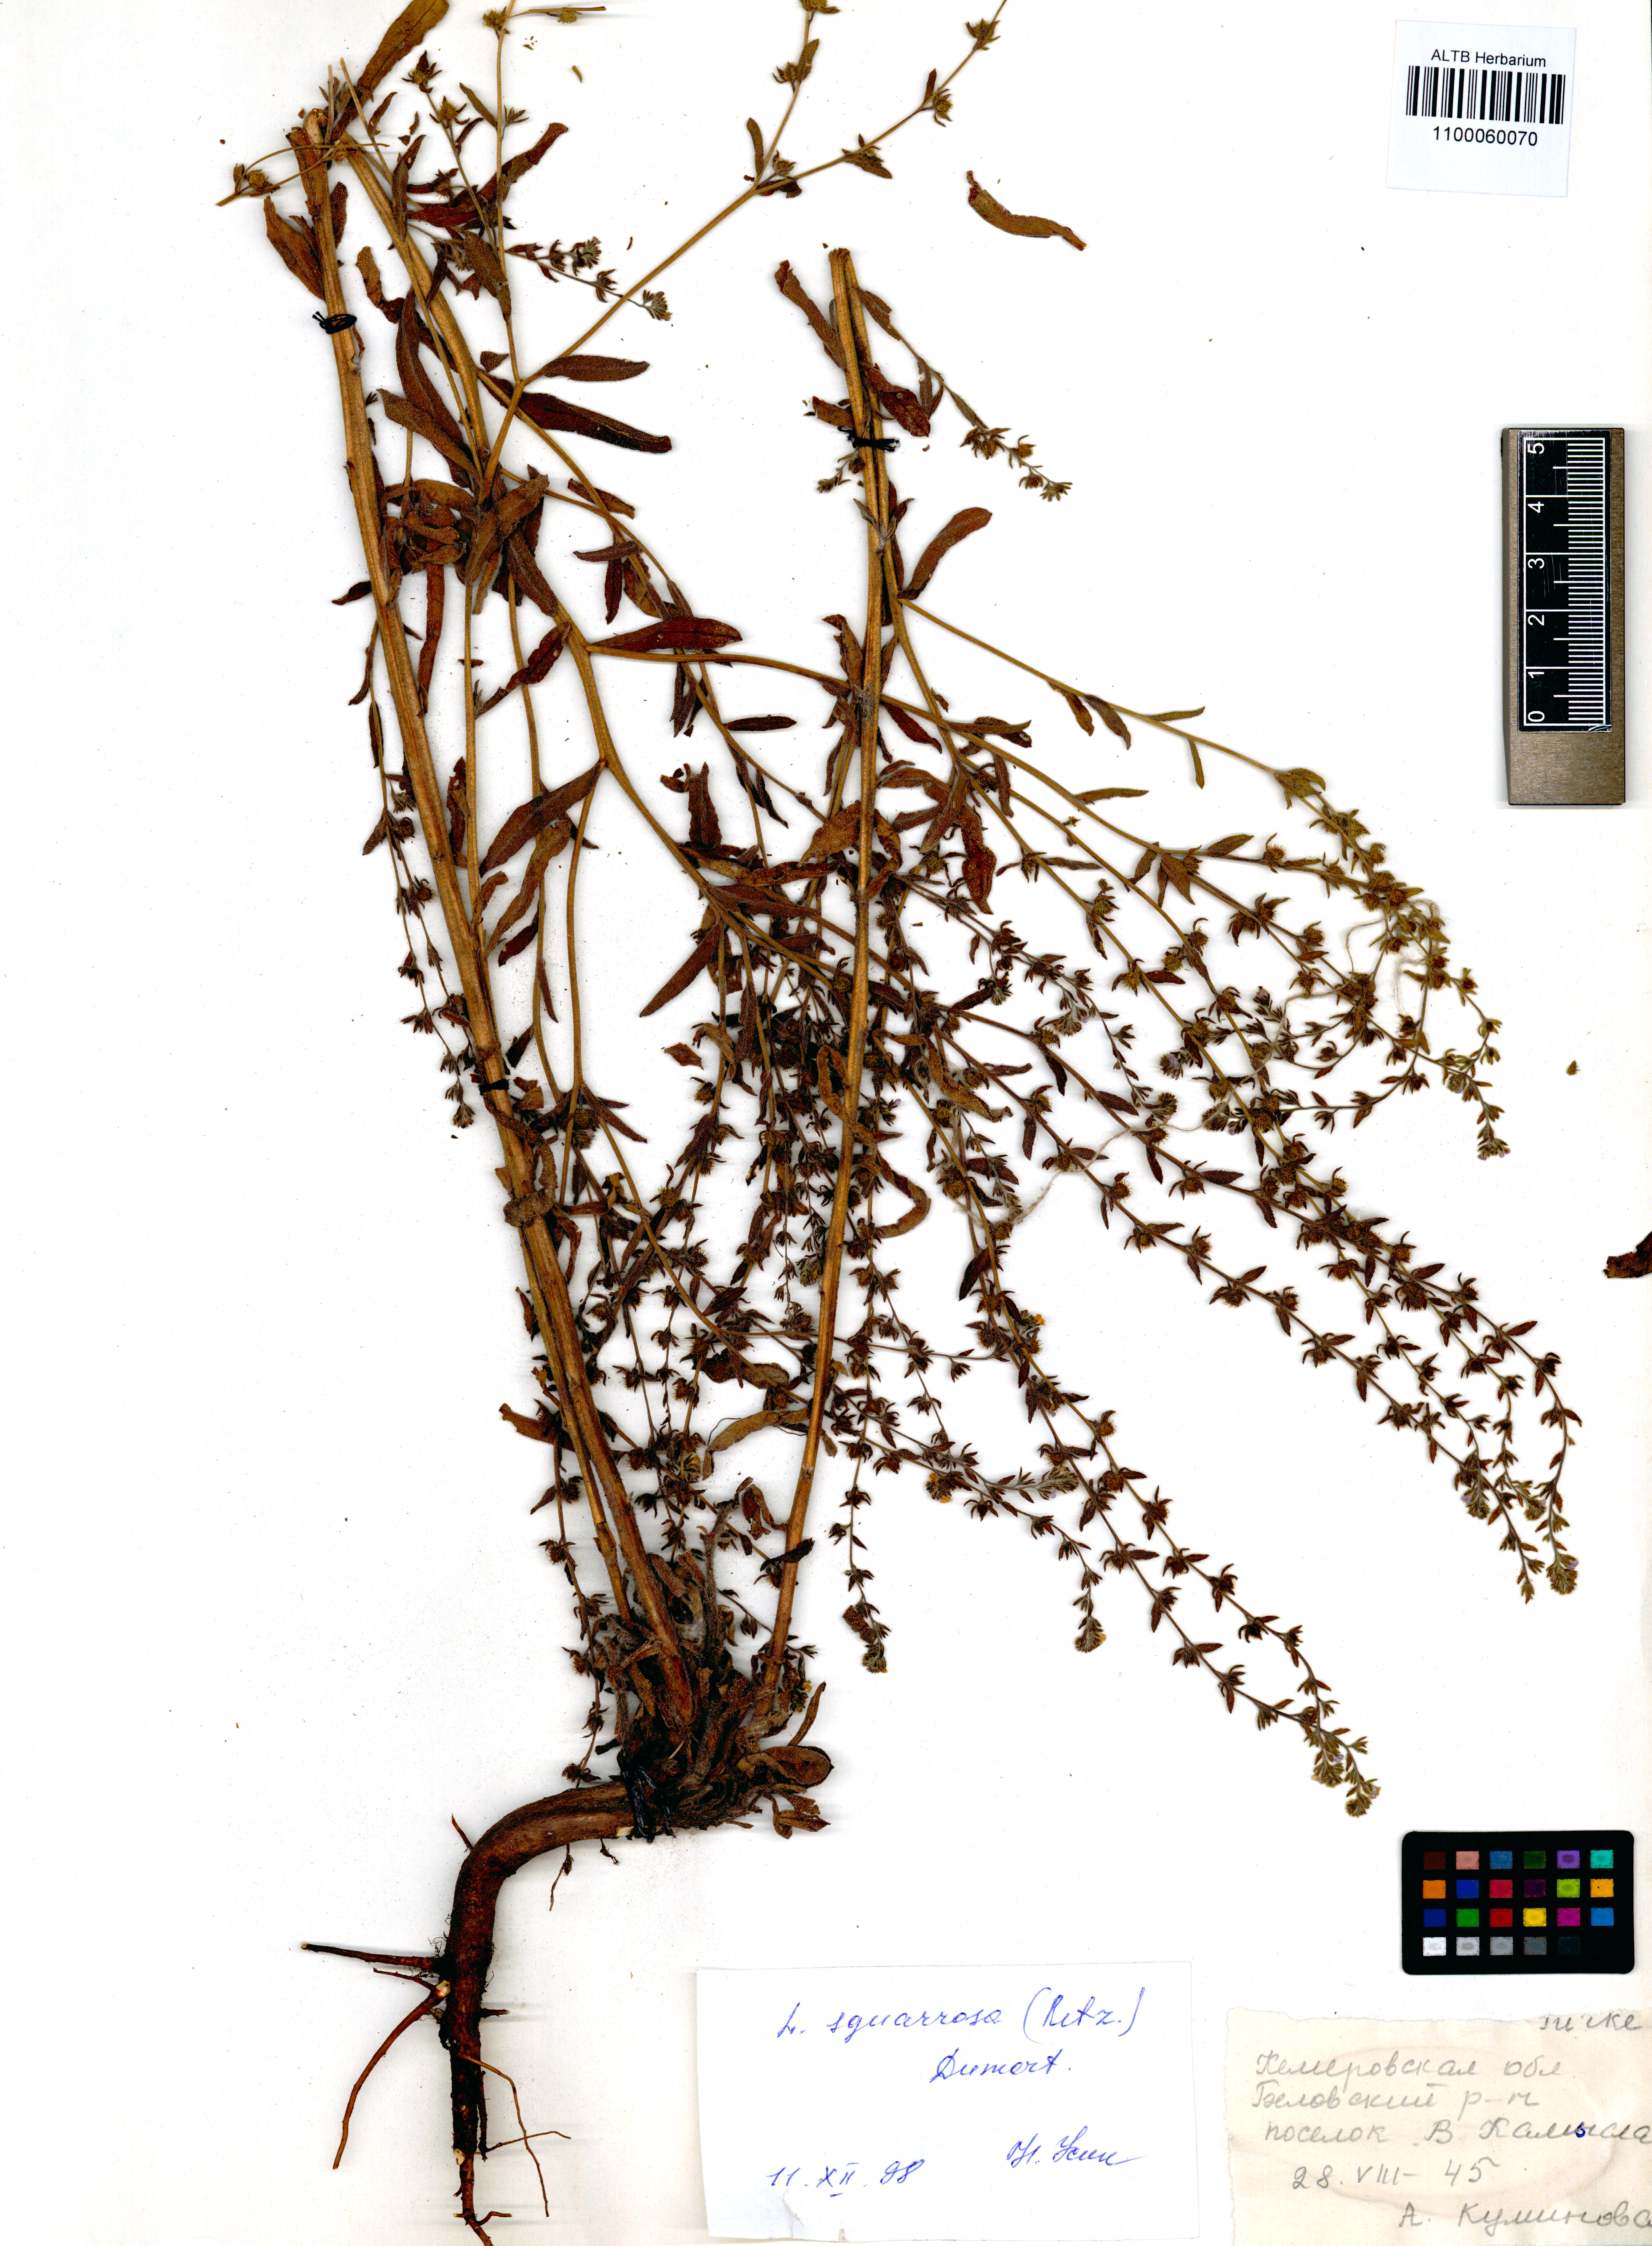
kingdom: Plantae
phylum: Tracheophyta
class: Magnoliopsida
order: Boraginales
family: Boraginaceae
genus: Lappula
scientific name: Lappula squarrosa
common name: European stickseed
